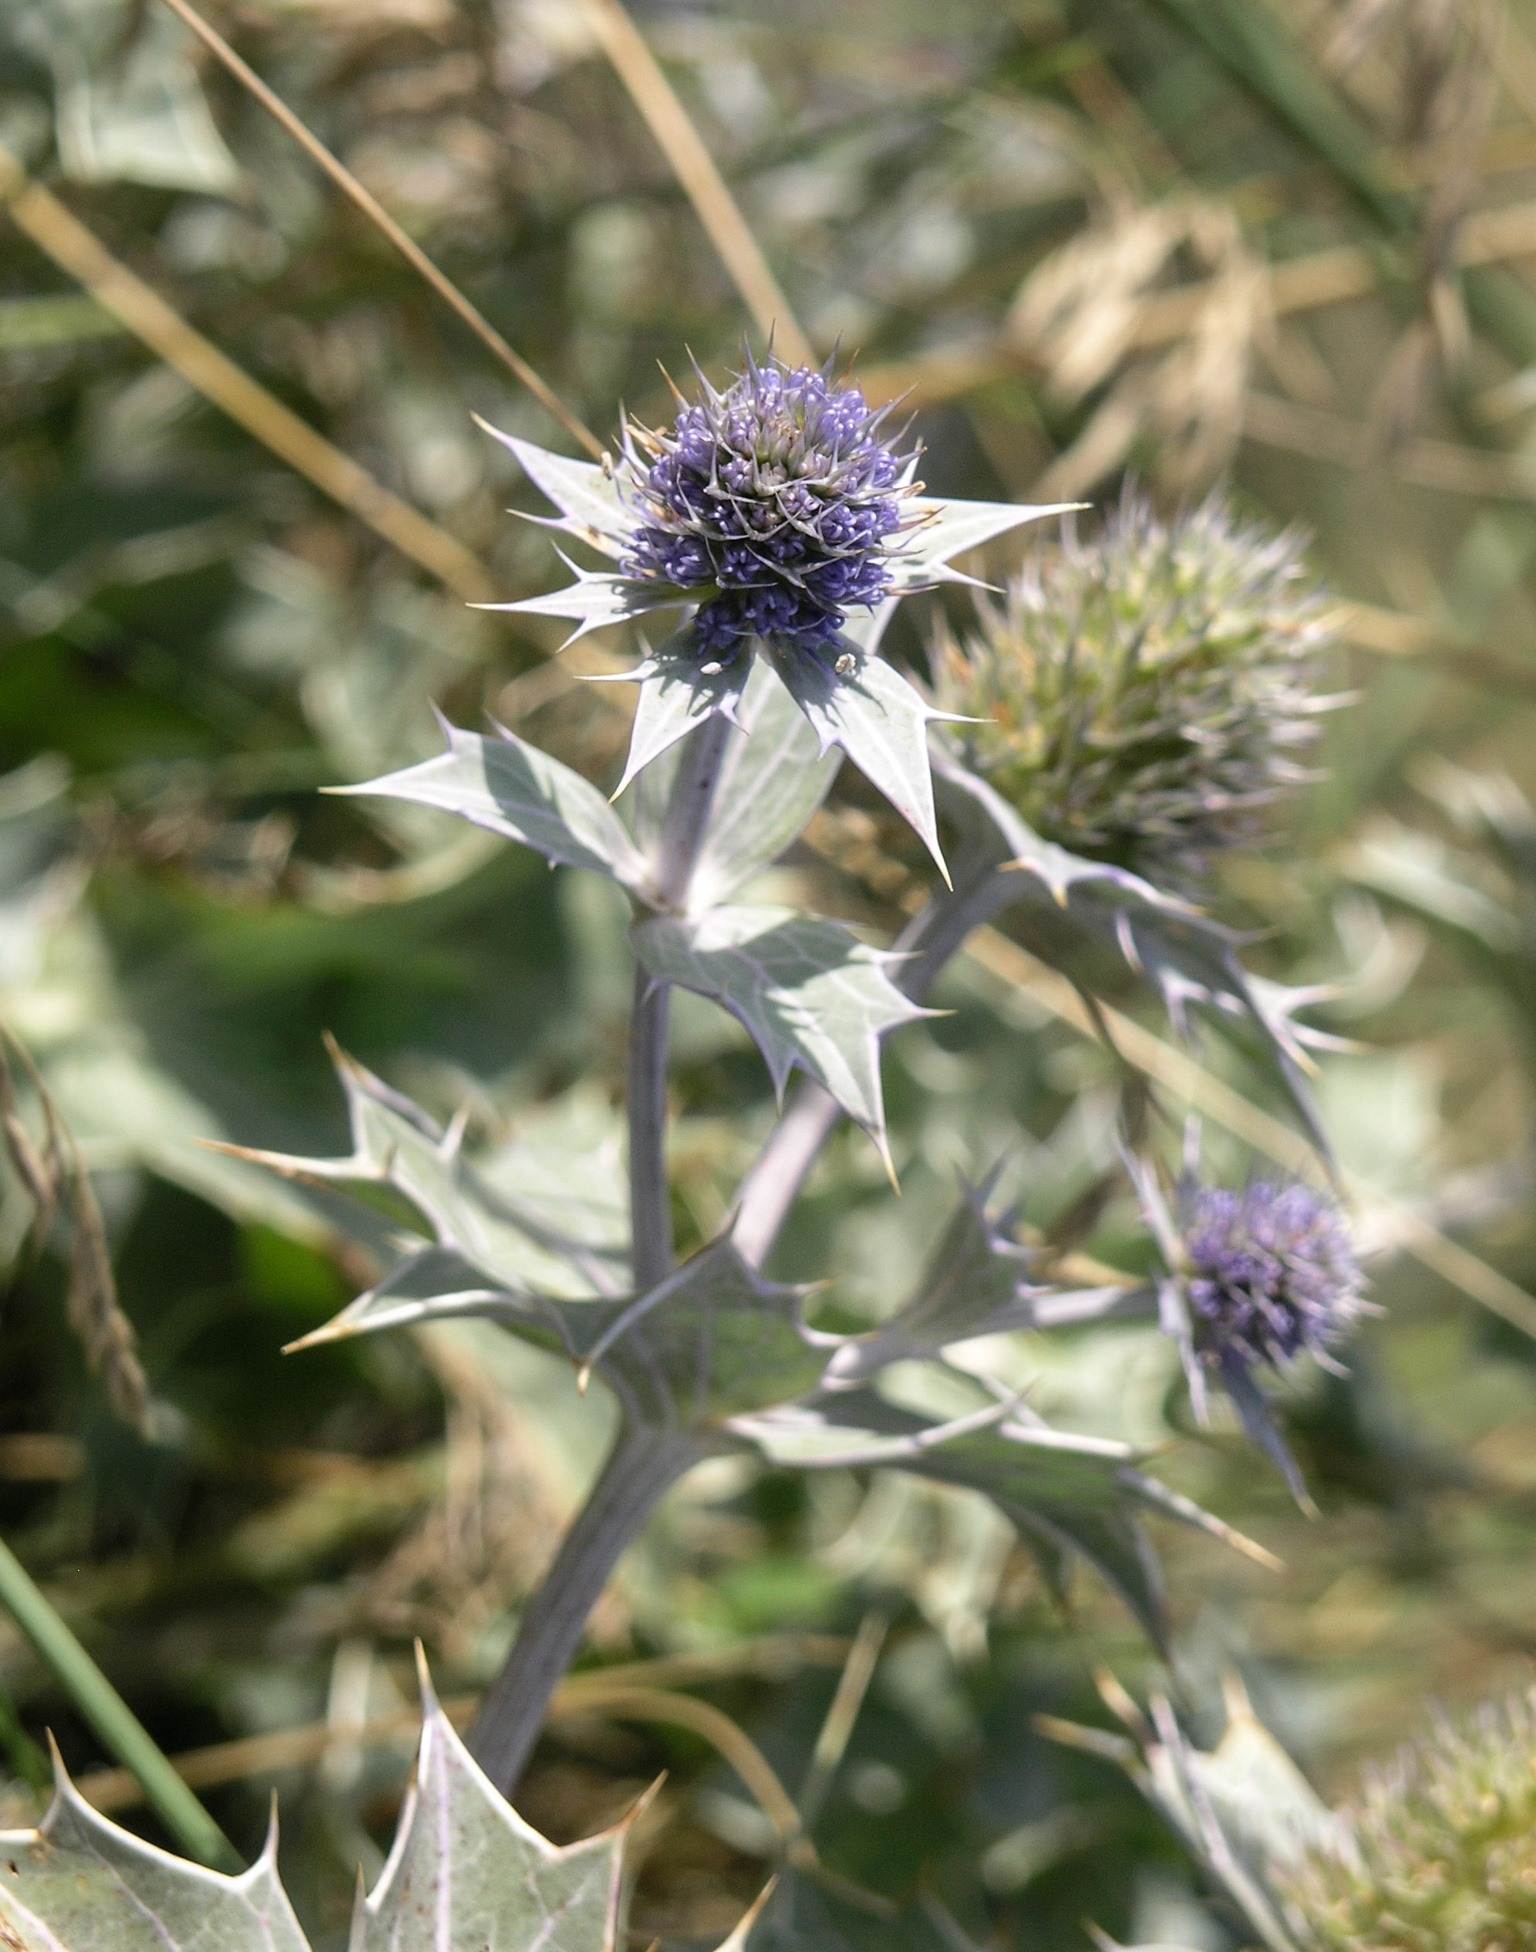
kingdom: Plantae
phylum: Tracheophyta
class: Magnoliopsida
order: Apiales
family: Apiaceae
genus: Eryngium
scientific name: Eryngium maritimum
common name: Sea-holly
